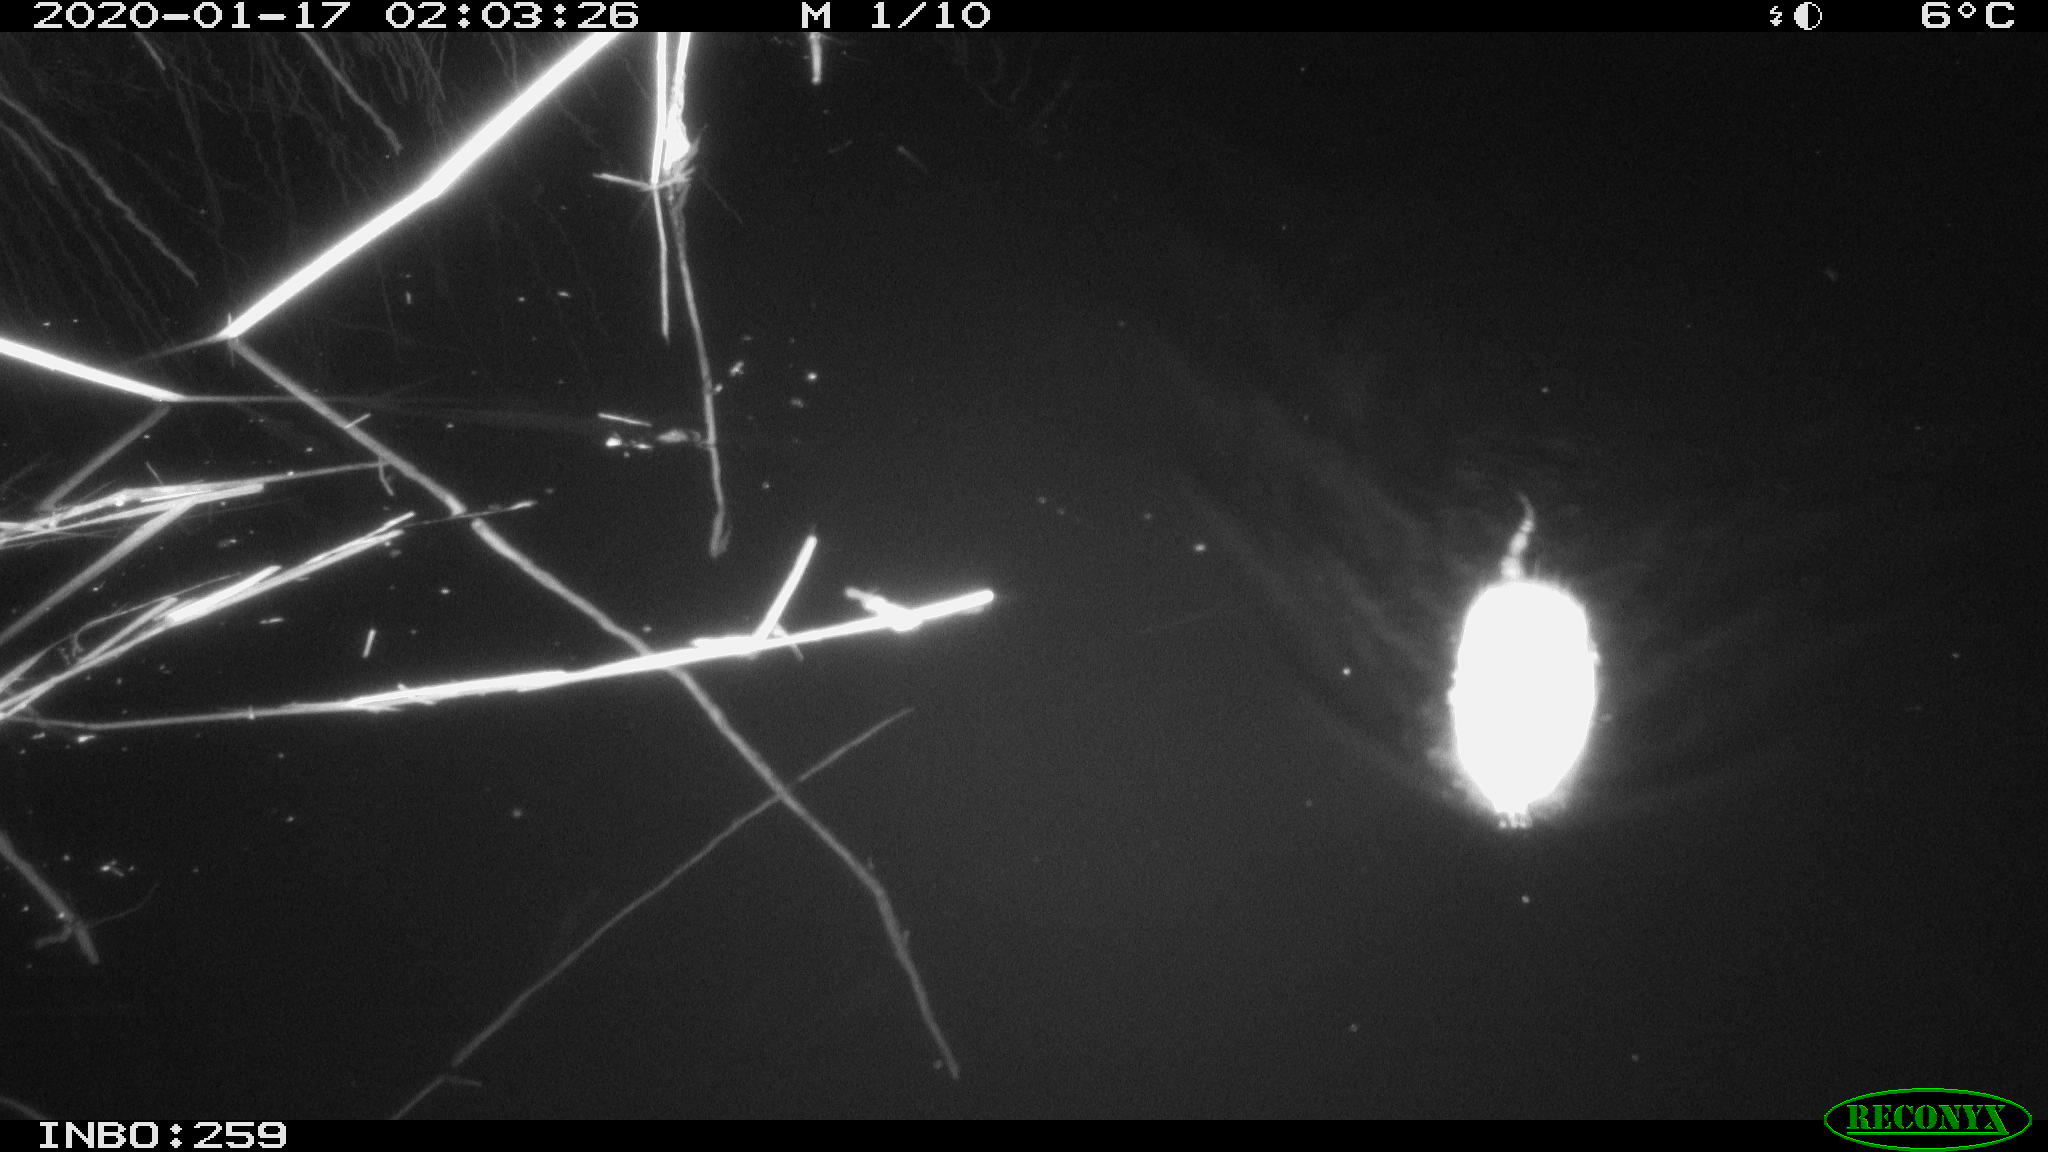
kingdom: Animalia
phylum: Chordata
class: Mammalia
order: Rodentia
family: Cricetidae
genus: Ondatra
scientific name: Ondatra zibethicus
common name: Muskrat
